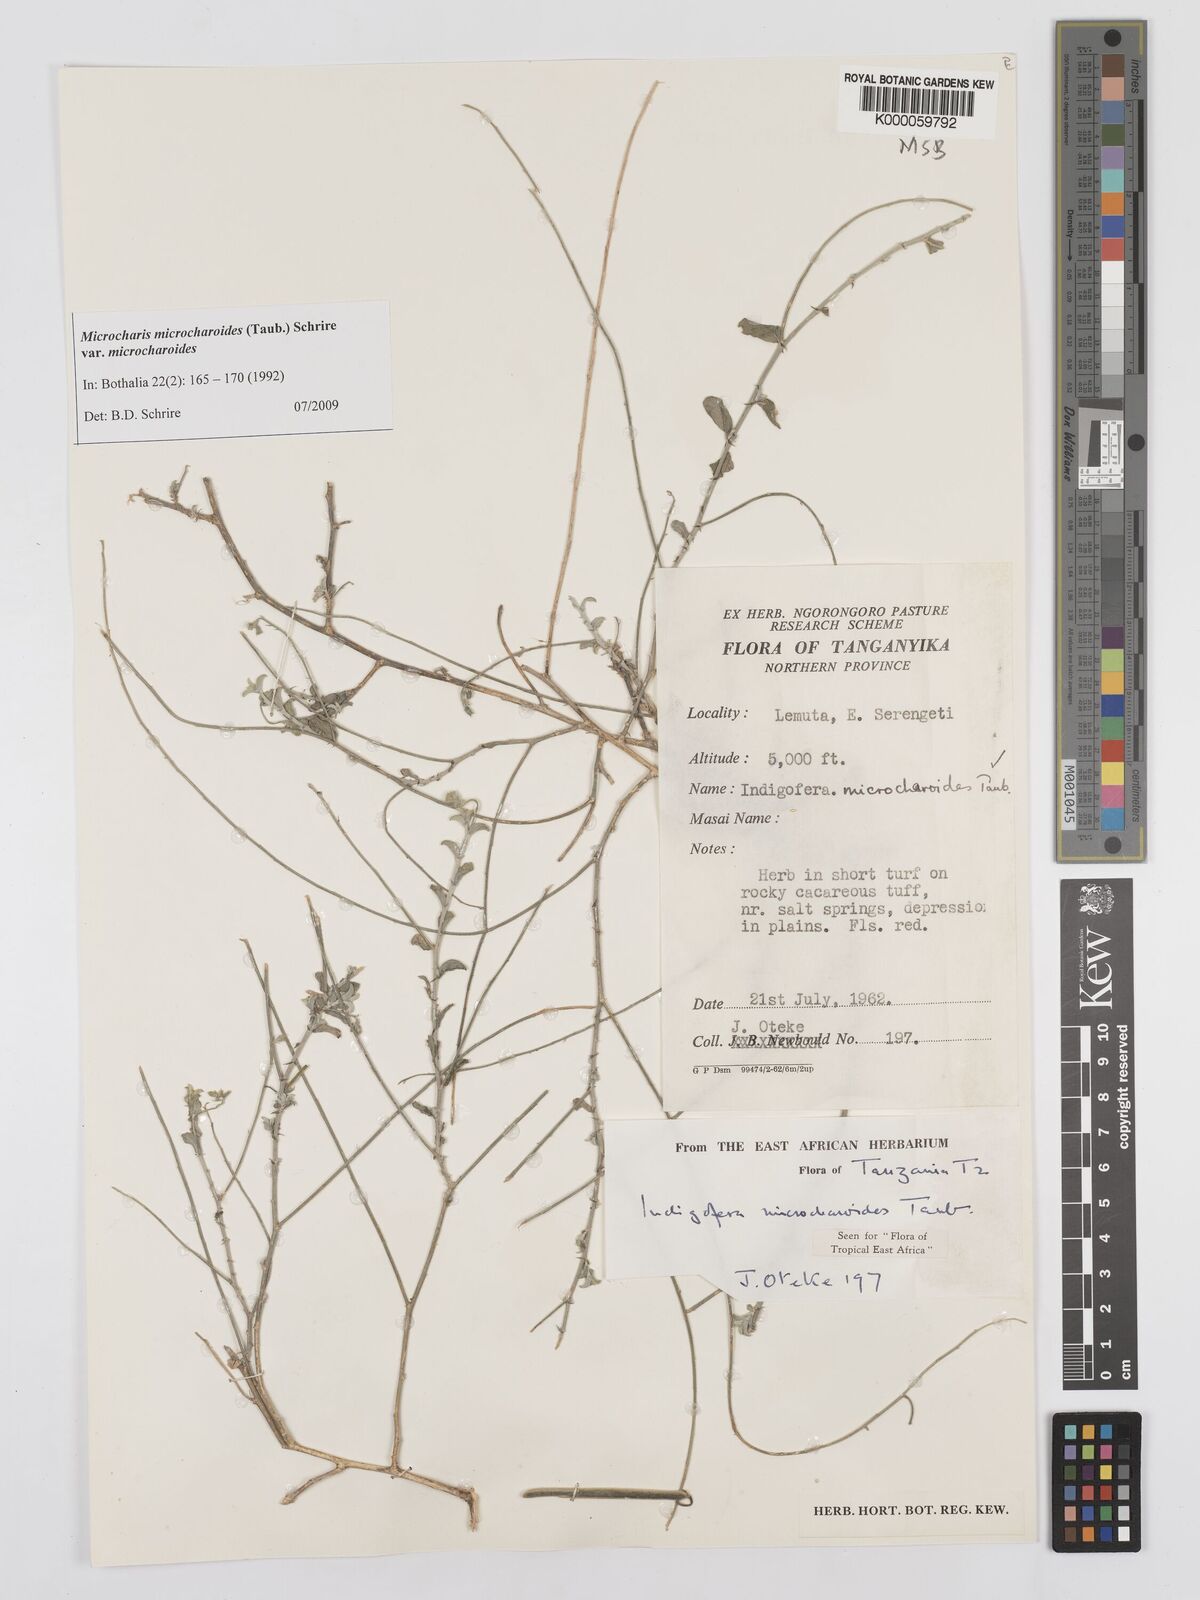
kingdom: Plantae
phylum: Tracheophyta
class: Magnoliopsida
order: Fabales
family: Fabaceae
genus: Microcharis
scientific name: Microcharis microcharoides
